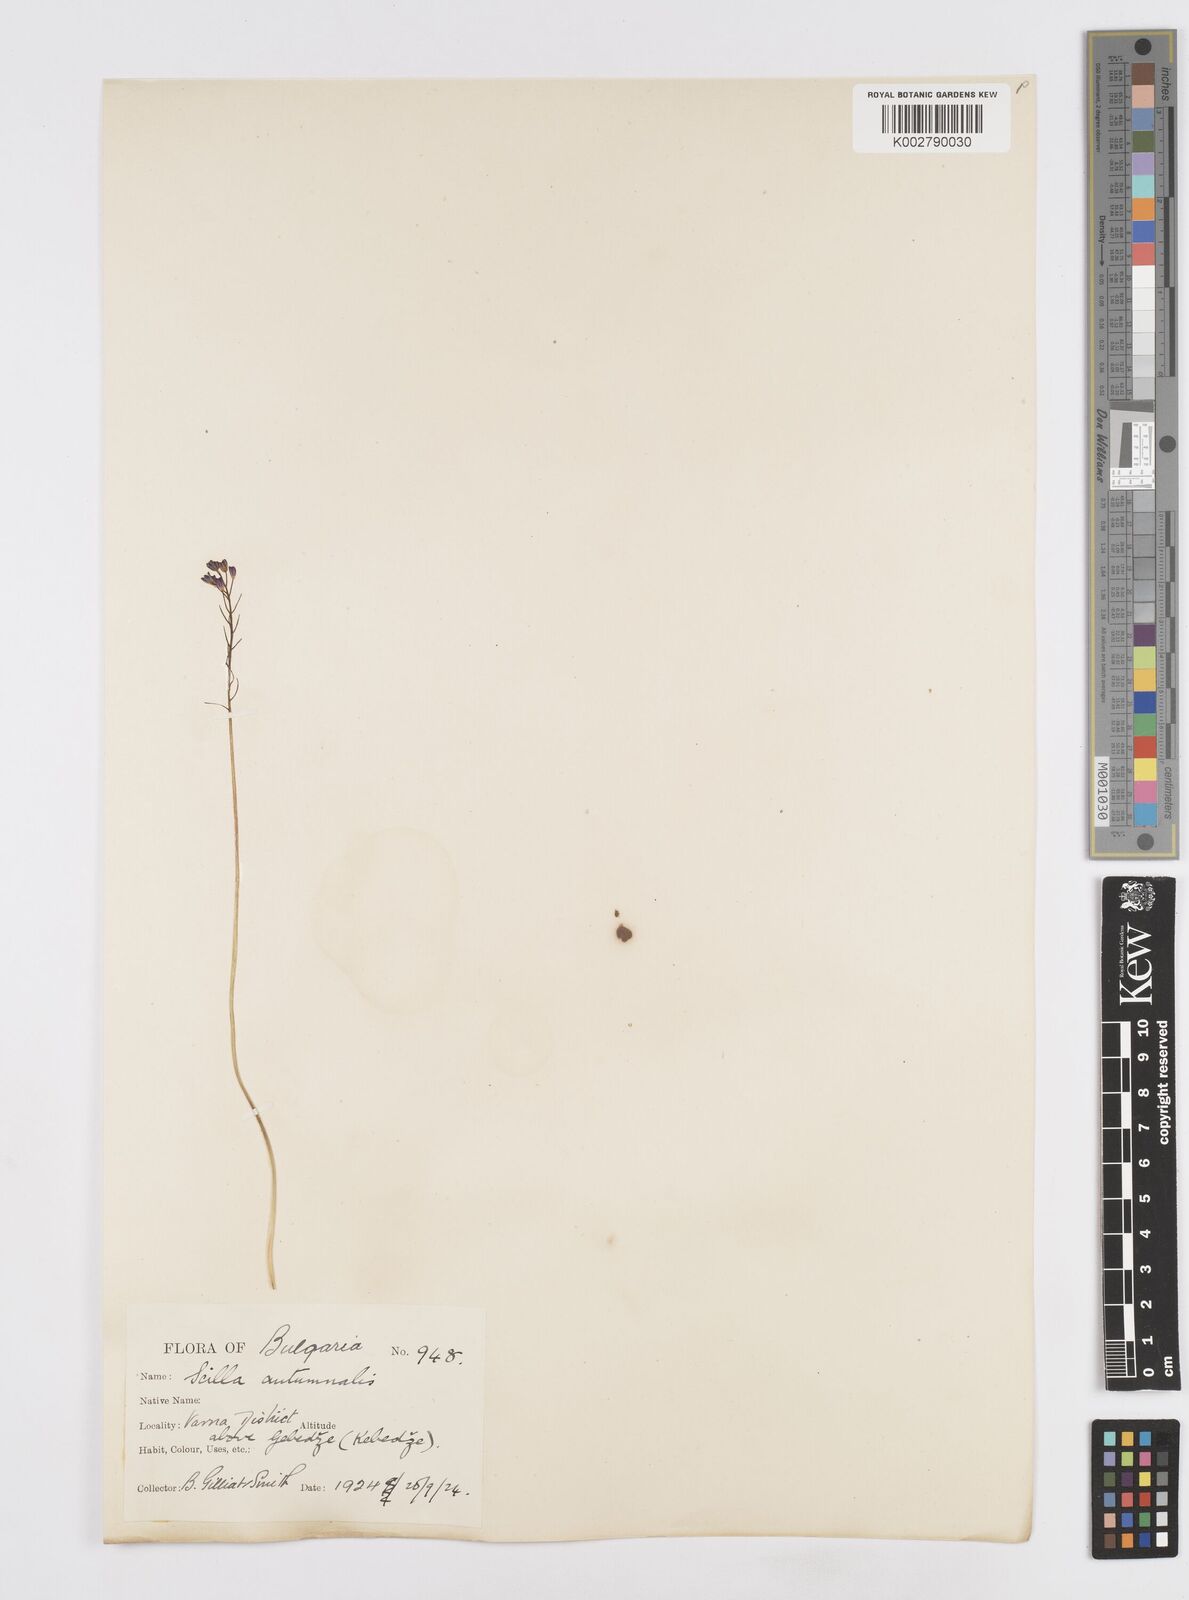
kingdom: Plantae
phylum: Tracheophyta
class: Liliopsida
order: Asparagales
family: Asparagaceae
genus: Prospero
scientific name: Prospero autumnale
